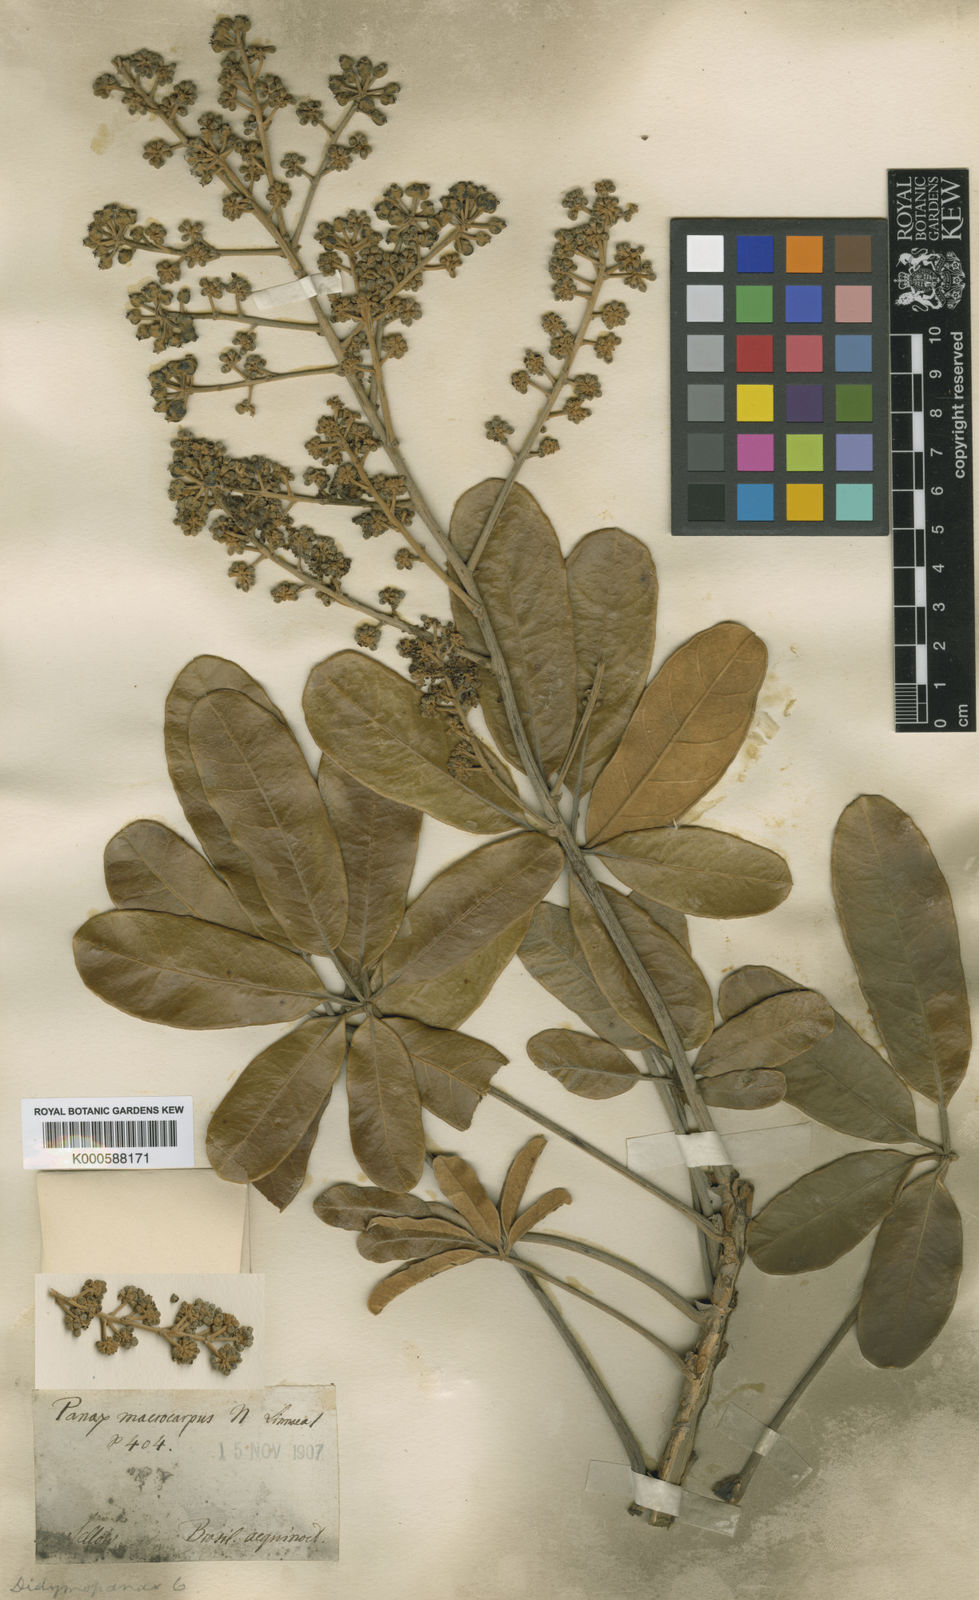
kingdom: Plantae
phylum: Tracheophyta
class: Magnoliopsida
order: Apiales
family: Araliaceae
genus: Didymopanax
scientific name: Didymopanax macrocarpus
